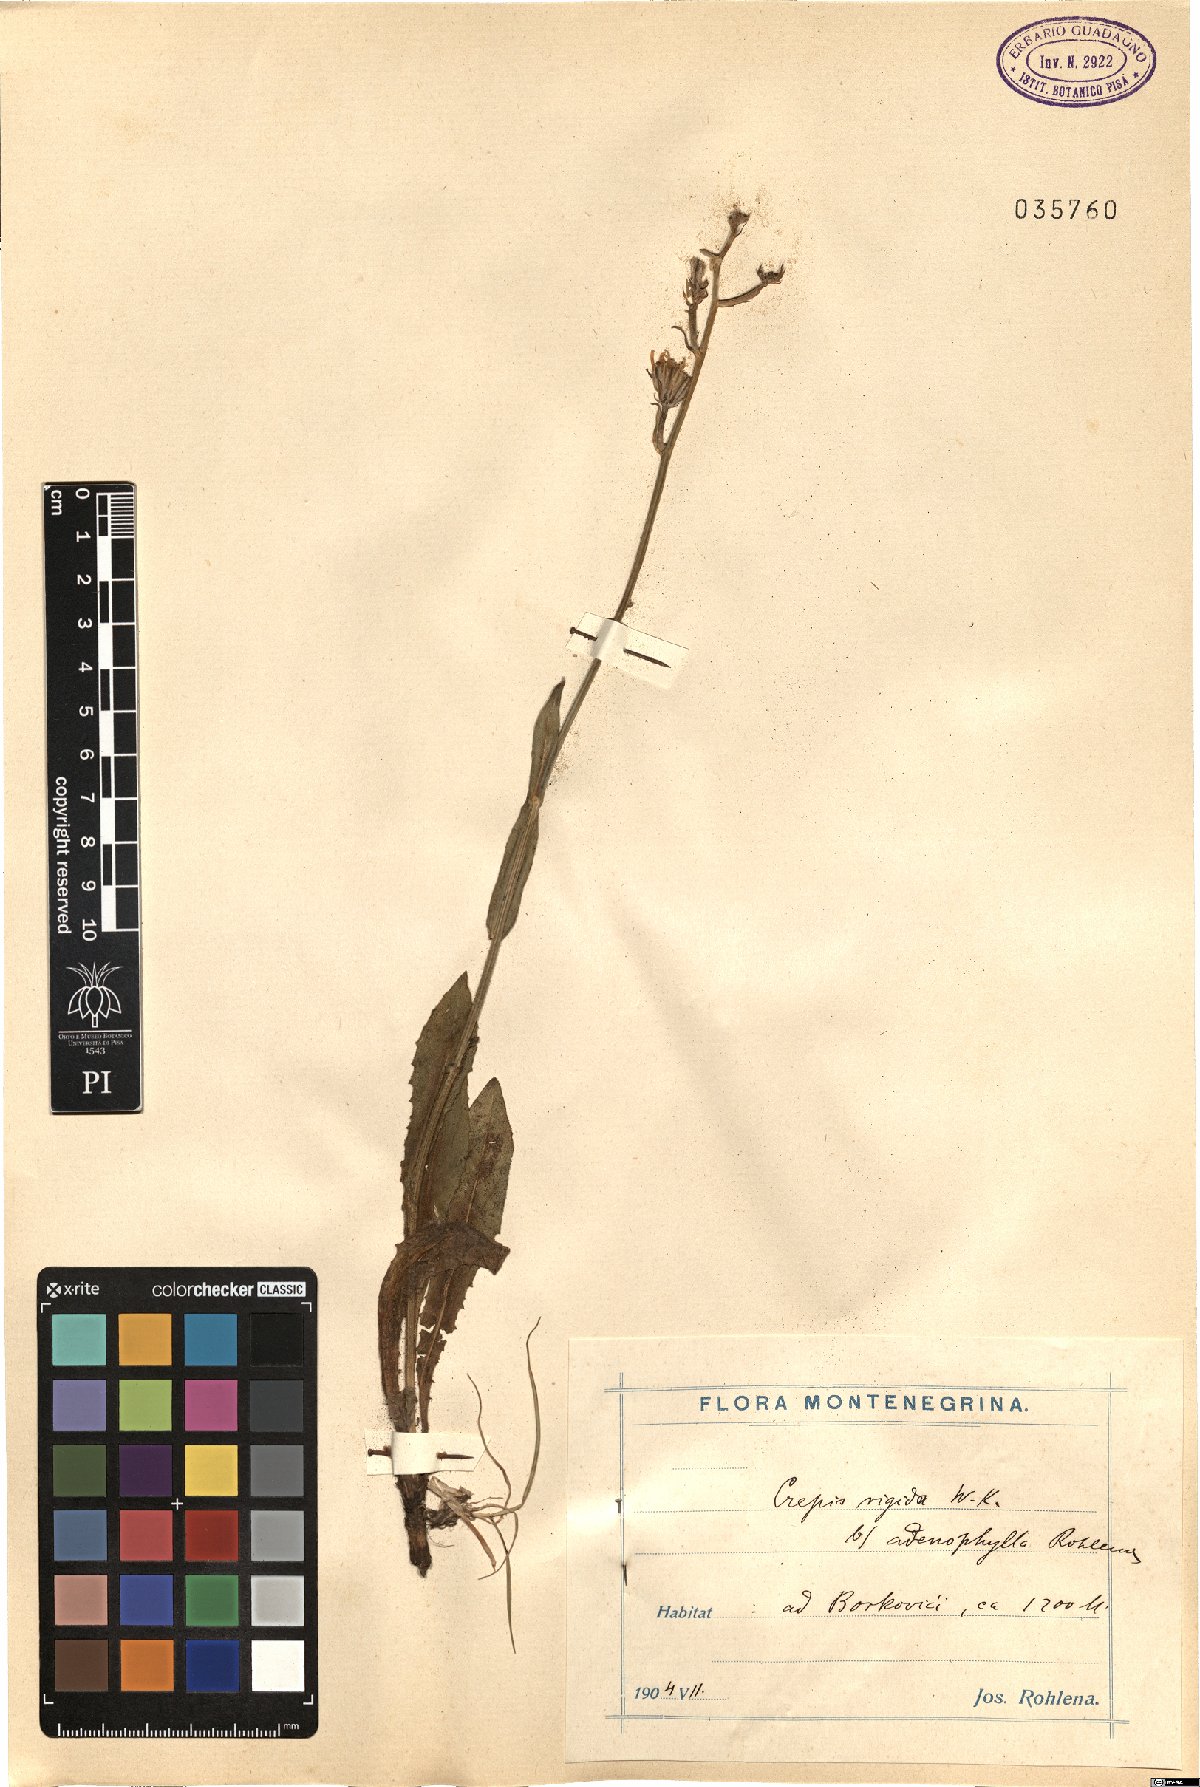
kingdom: Plantae
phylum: Tracheophyta
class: Magnoliopsida
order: Asterales
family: Asteraceae
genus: Crepis
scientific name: Crepis pannonica
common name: Pasture hawksbeard
